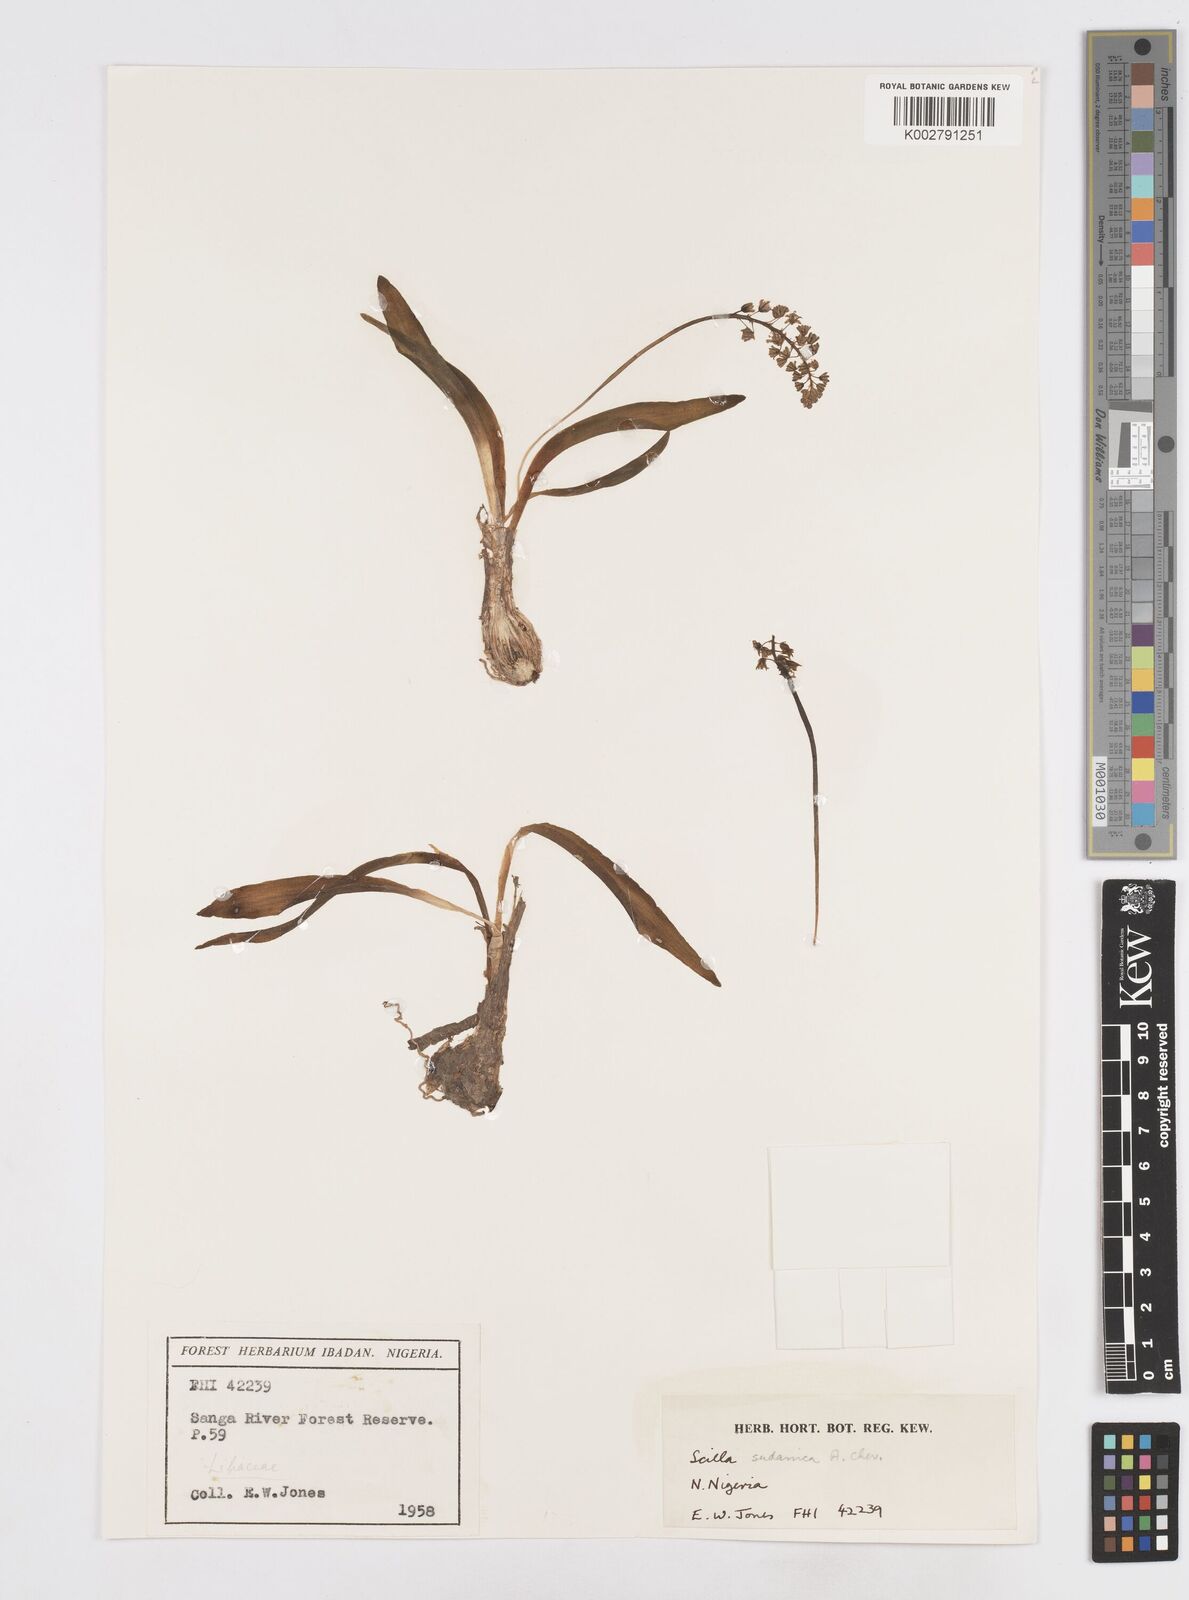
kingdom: Plantae
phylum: Tracheophyta
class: Liliopsida
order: Asparagales
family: Asparagaceae
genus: Ledebouria
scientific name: Ledebouria sudanica
